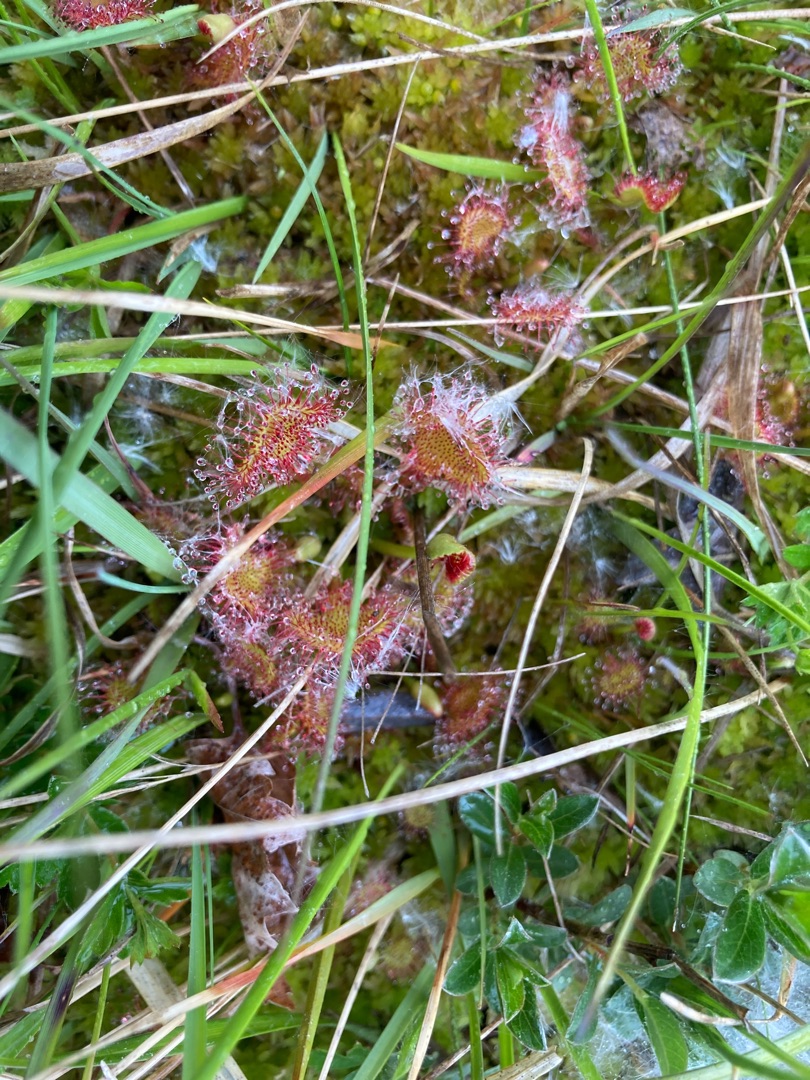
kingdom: Plantae
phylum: Tracheophyta
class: Magnoliopsida
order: Caryophyllales
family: Droseraceae
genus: Drosera
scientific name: Drosera rotundifolia
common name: Rundbladet soldug
